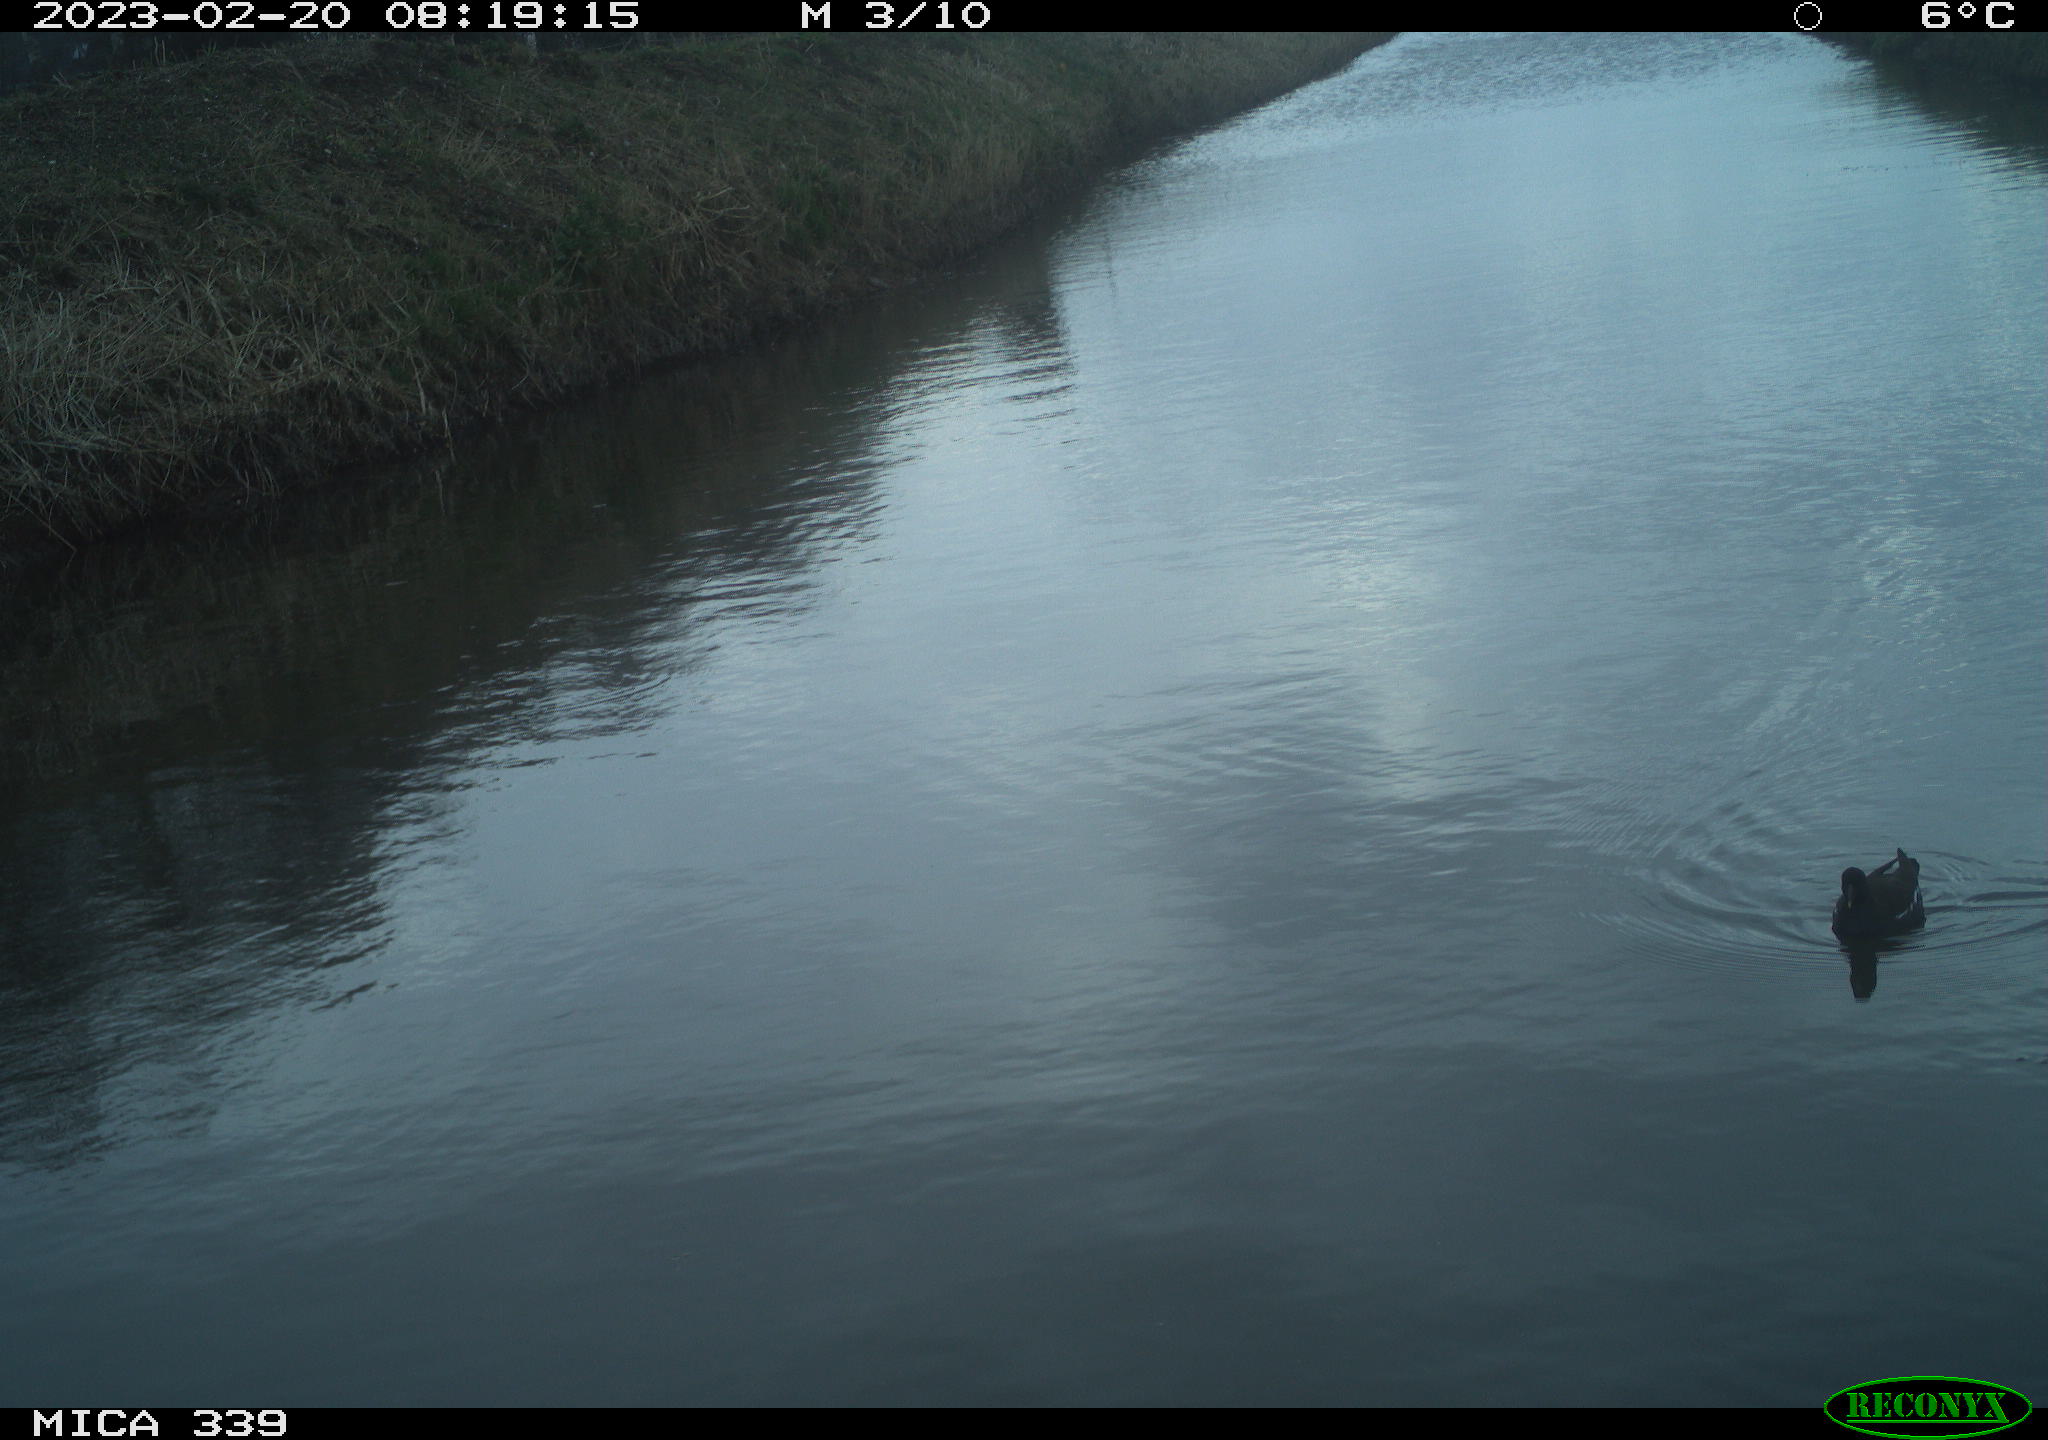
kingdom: Animalia
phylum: Chordata
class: Aves
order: Gruiformes
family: Rallidae
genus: Gallinula
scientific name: Gallinula chloropus
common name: Common moorhen
